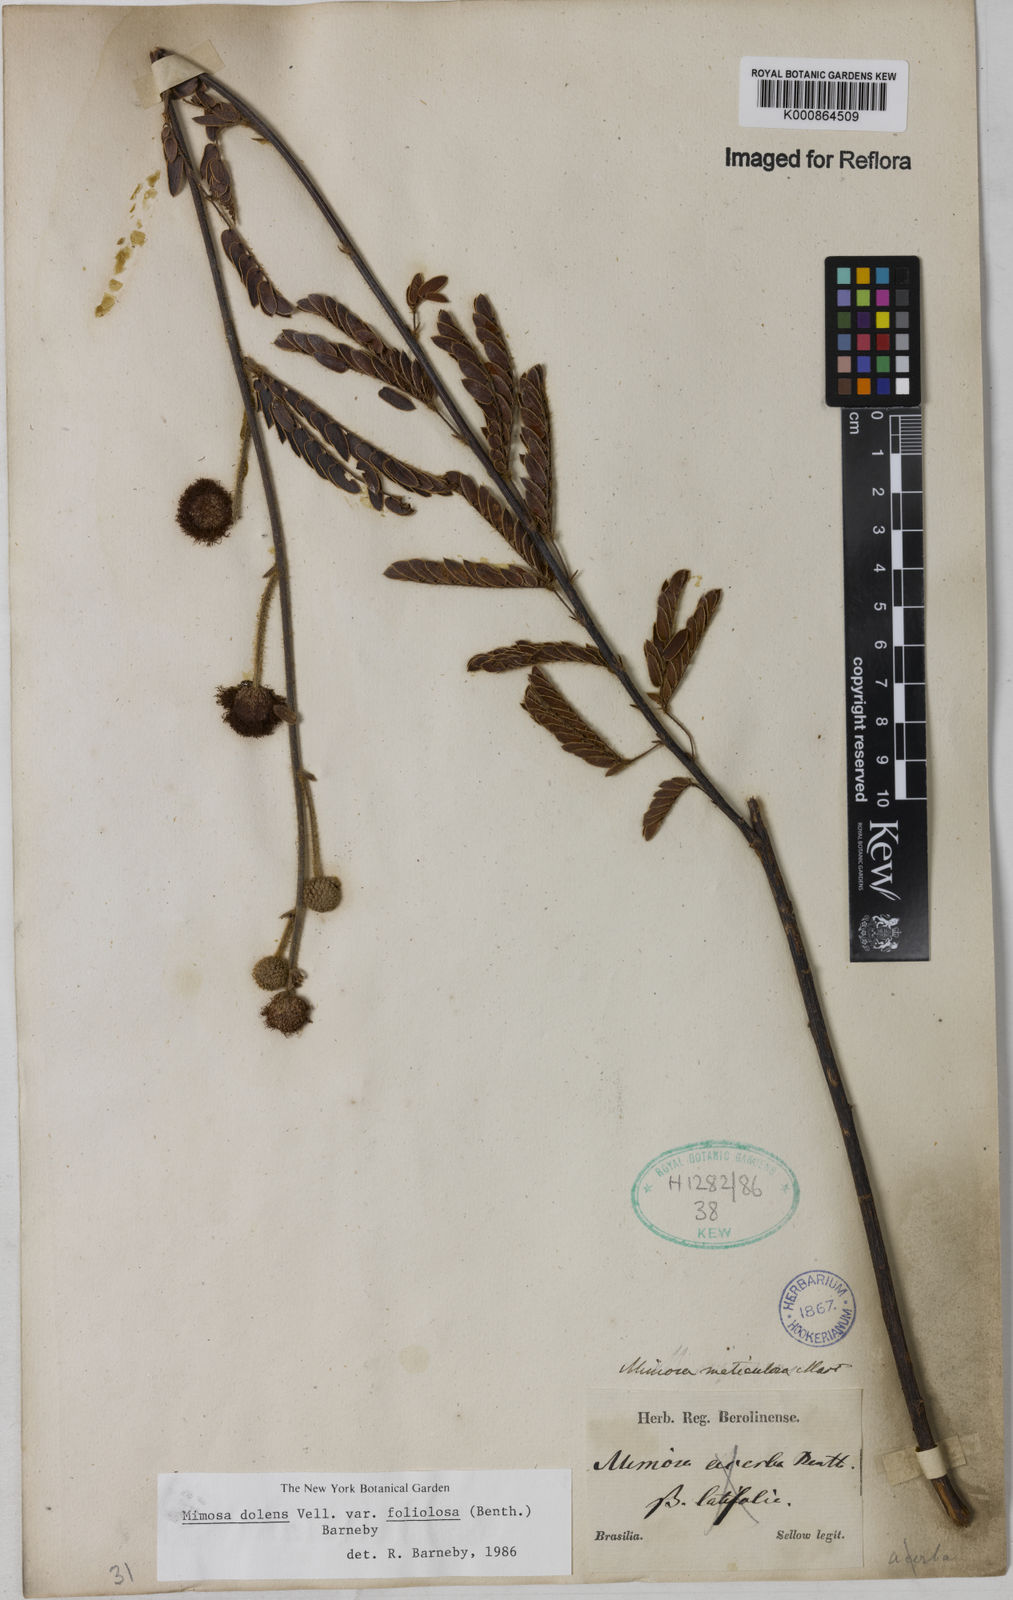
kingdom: Plantae
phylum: Tracheophyta
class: Magnoliopsida
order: Fabales
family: Fabaceae
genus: Mimosa
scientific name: Mimosa dolens
